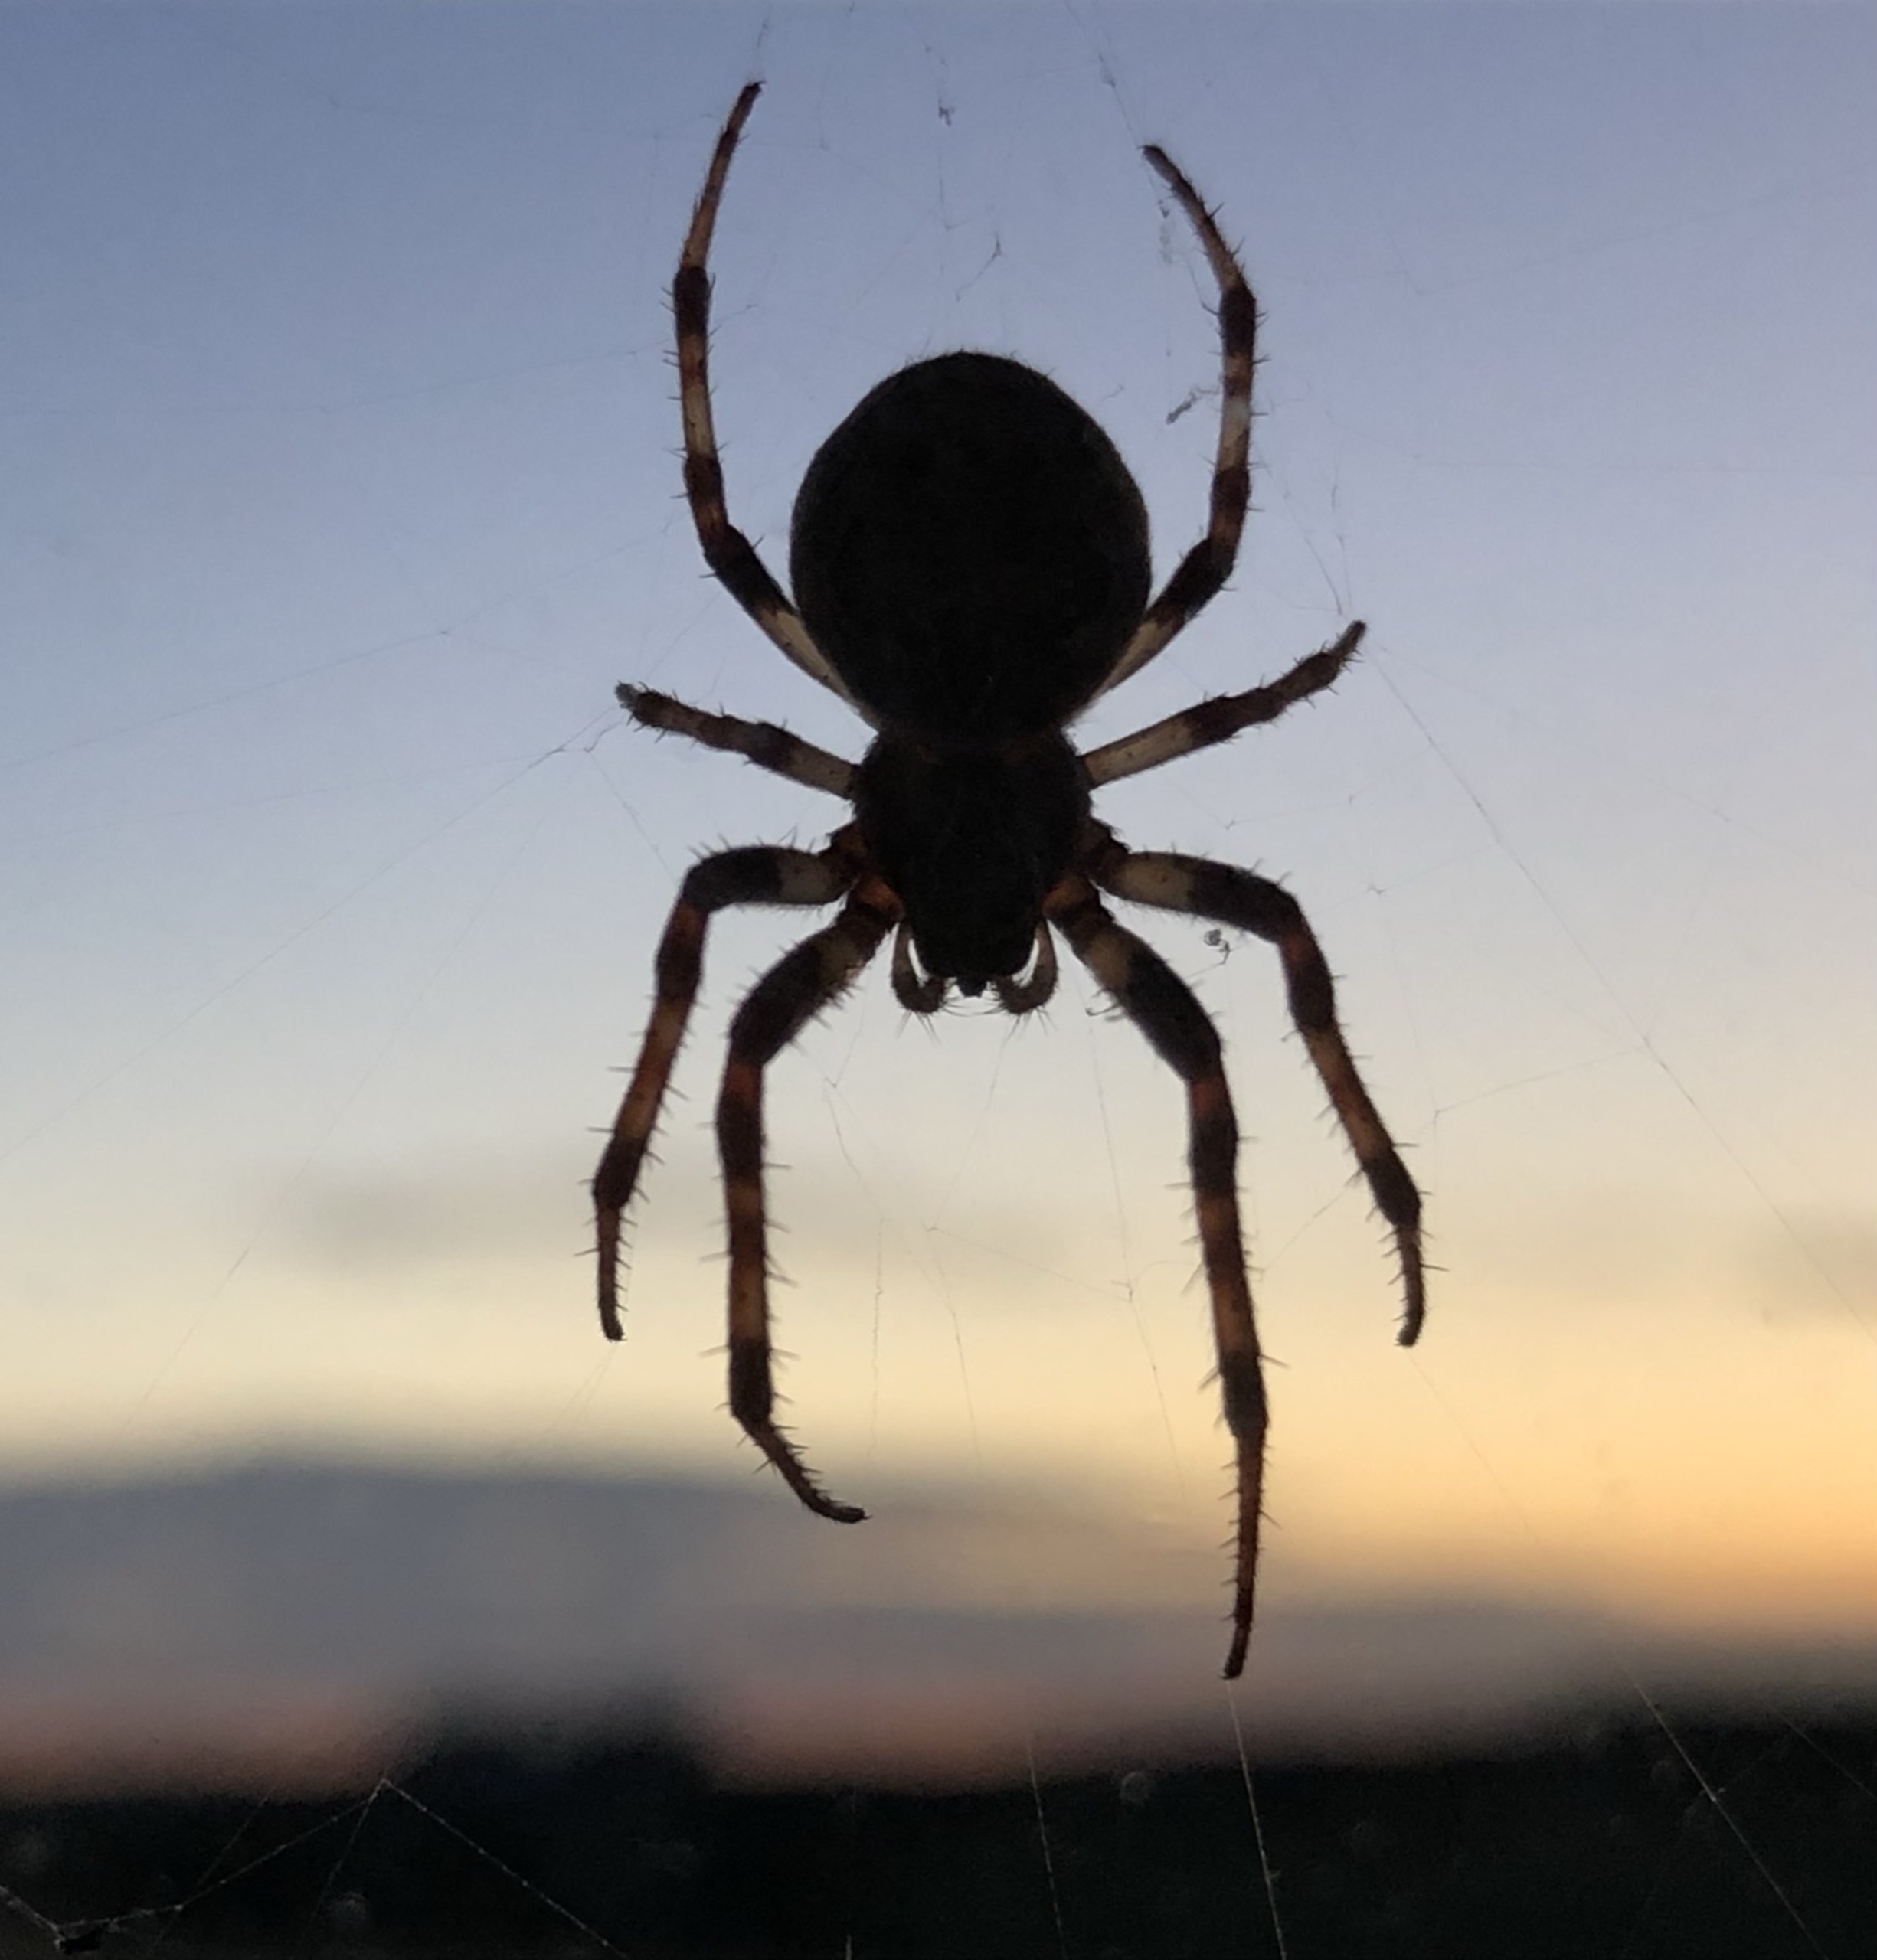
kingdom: Animalia
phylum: Arthropoda
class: Arachnida
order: Araneae
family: Araneidae
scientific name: Araneidae
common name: Hjulspindere
